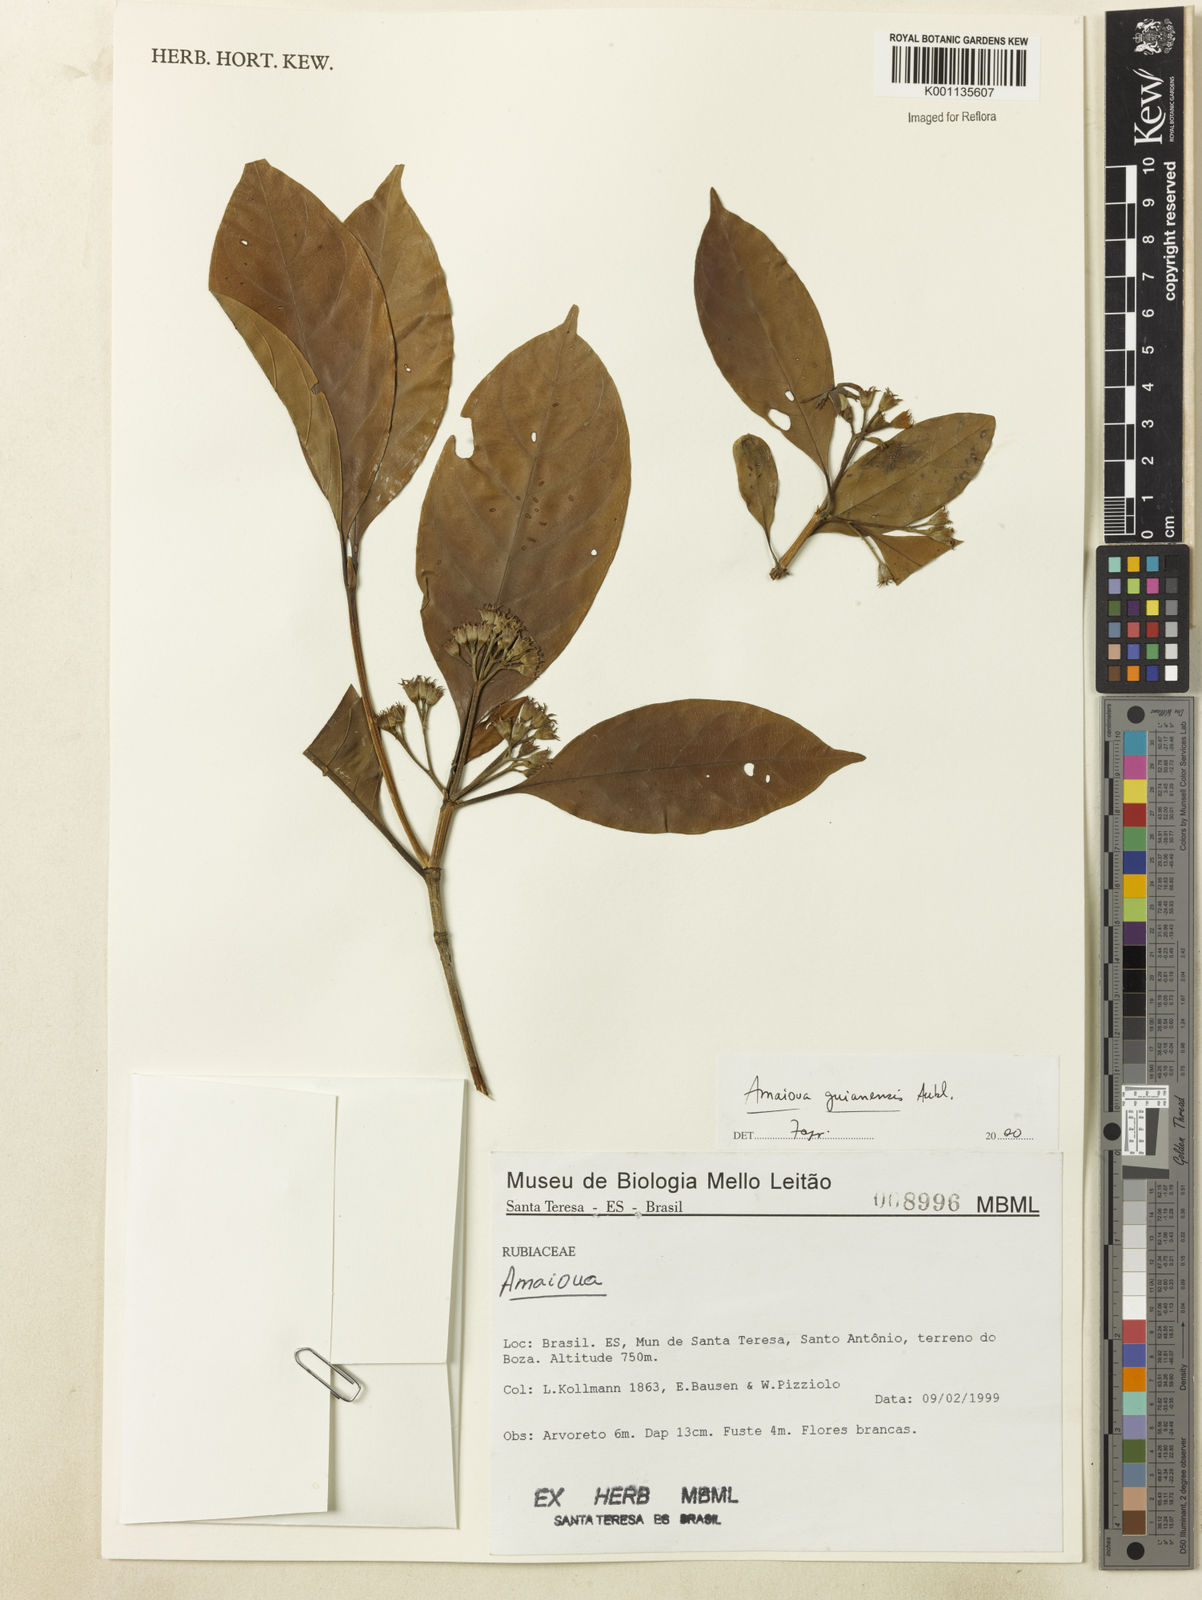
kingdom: Plantae
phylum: Tracheophyta
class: Magnoliopsida
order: Gentianales
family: Rubiaceae
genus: Amaioua
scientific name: Amaioua intermedia
